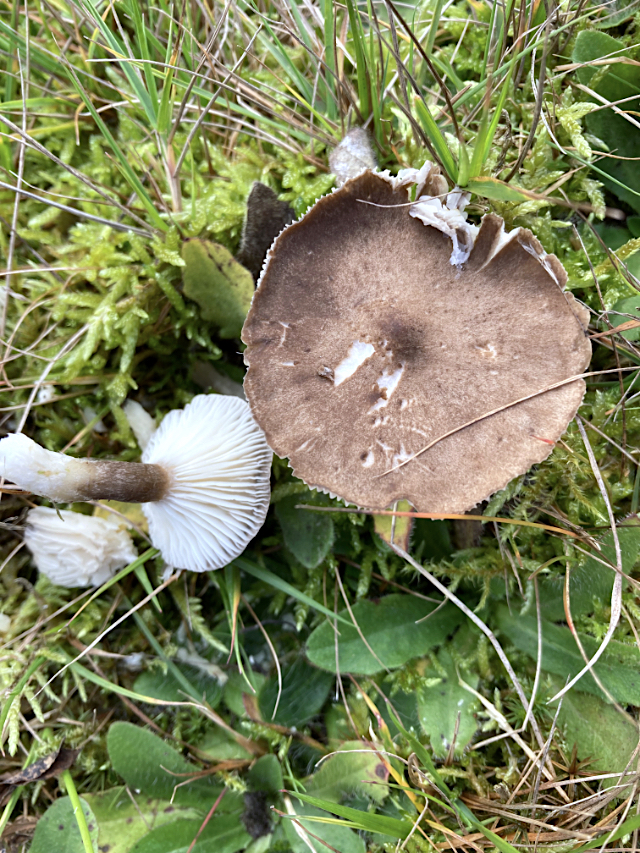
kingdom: Fungi
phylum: Basidiomycota
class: Agaricomycetes
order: Agaricales
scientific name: Agaricales
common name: champignonordenen
